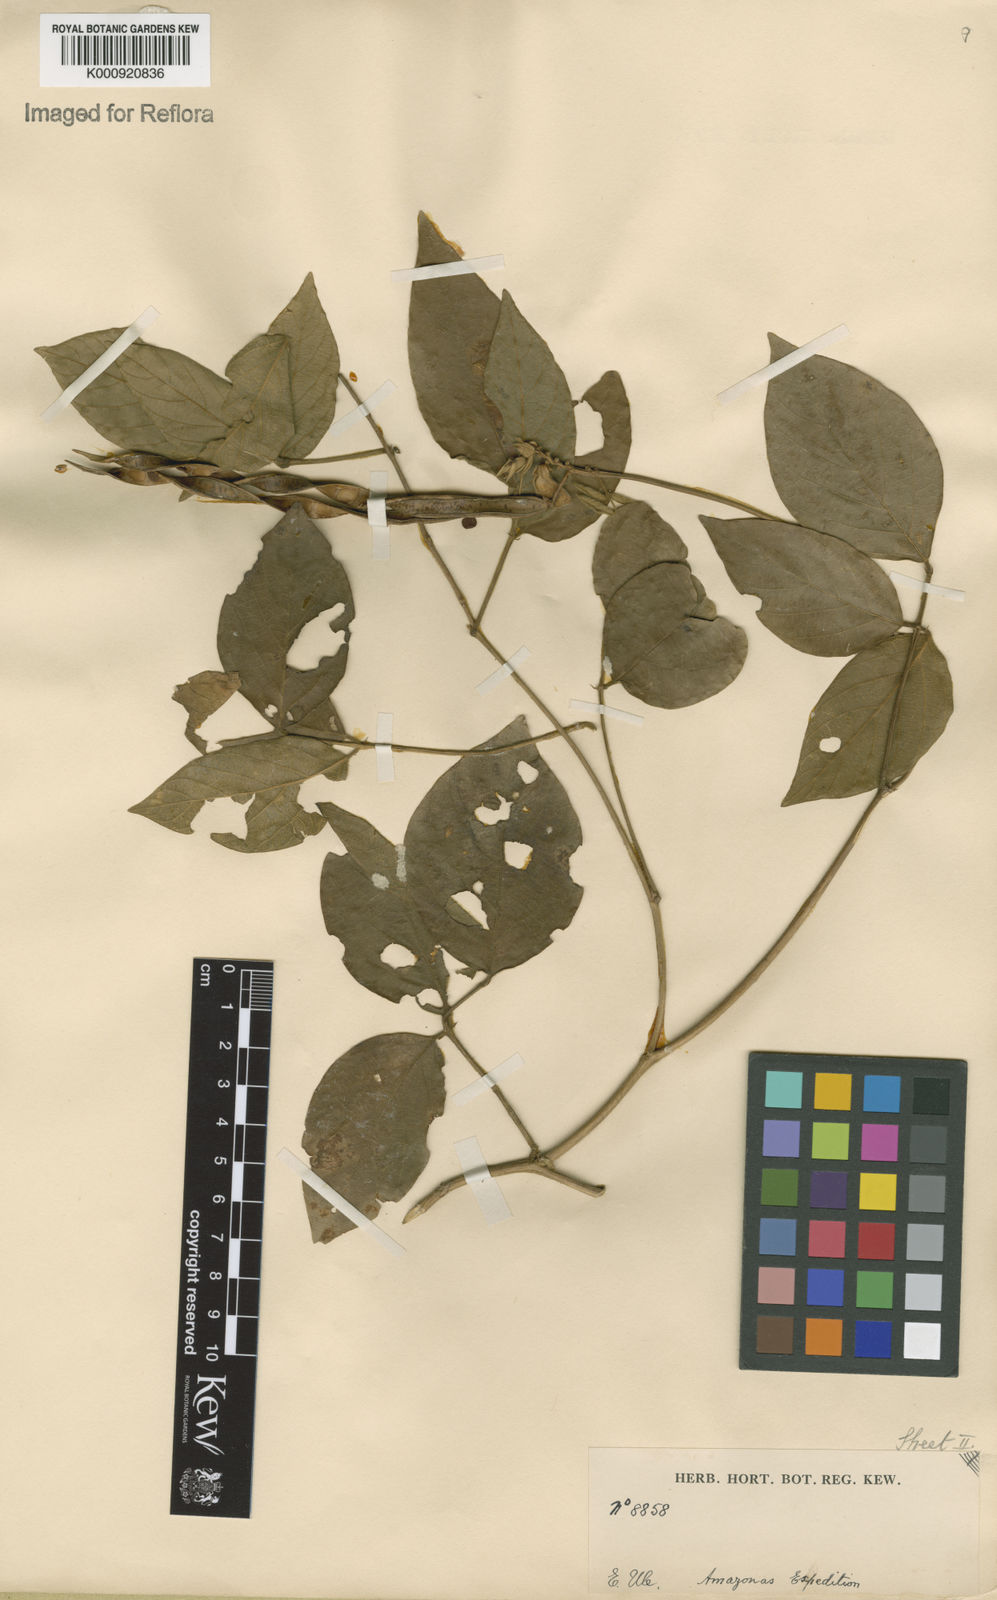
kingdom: Plantae
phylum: Tracheophyta
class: Magnoliopsida
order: Fabales
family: Fabaceae
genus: Centrosema
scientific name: Centrosema pubescens
